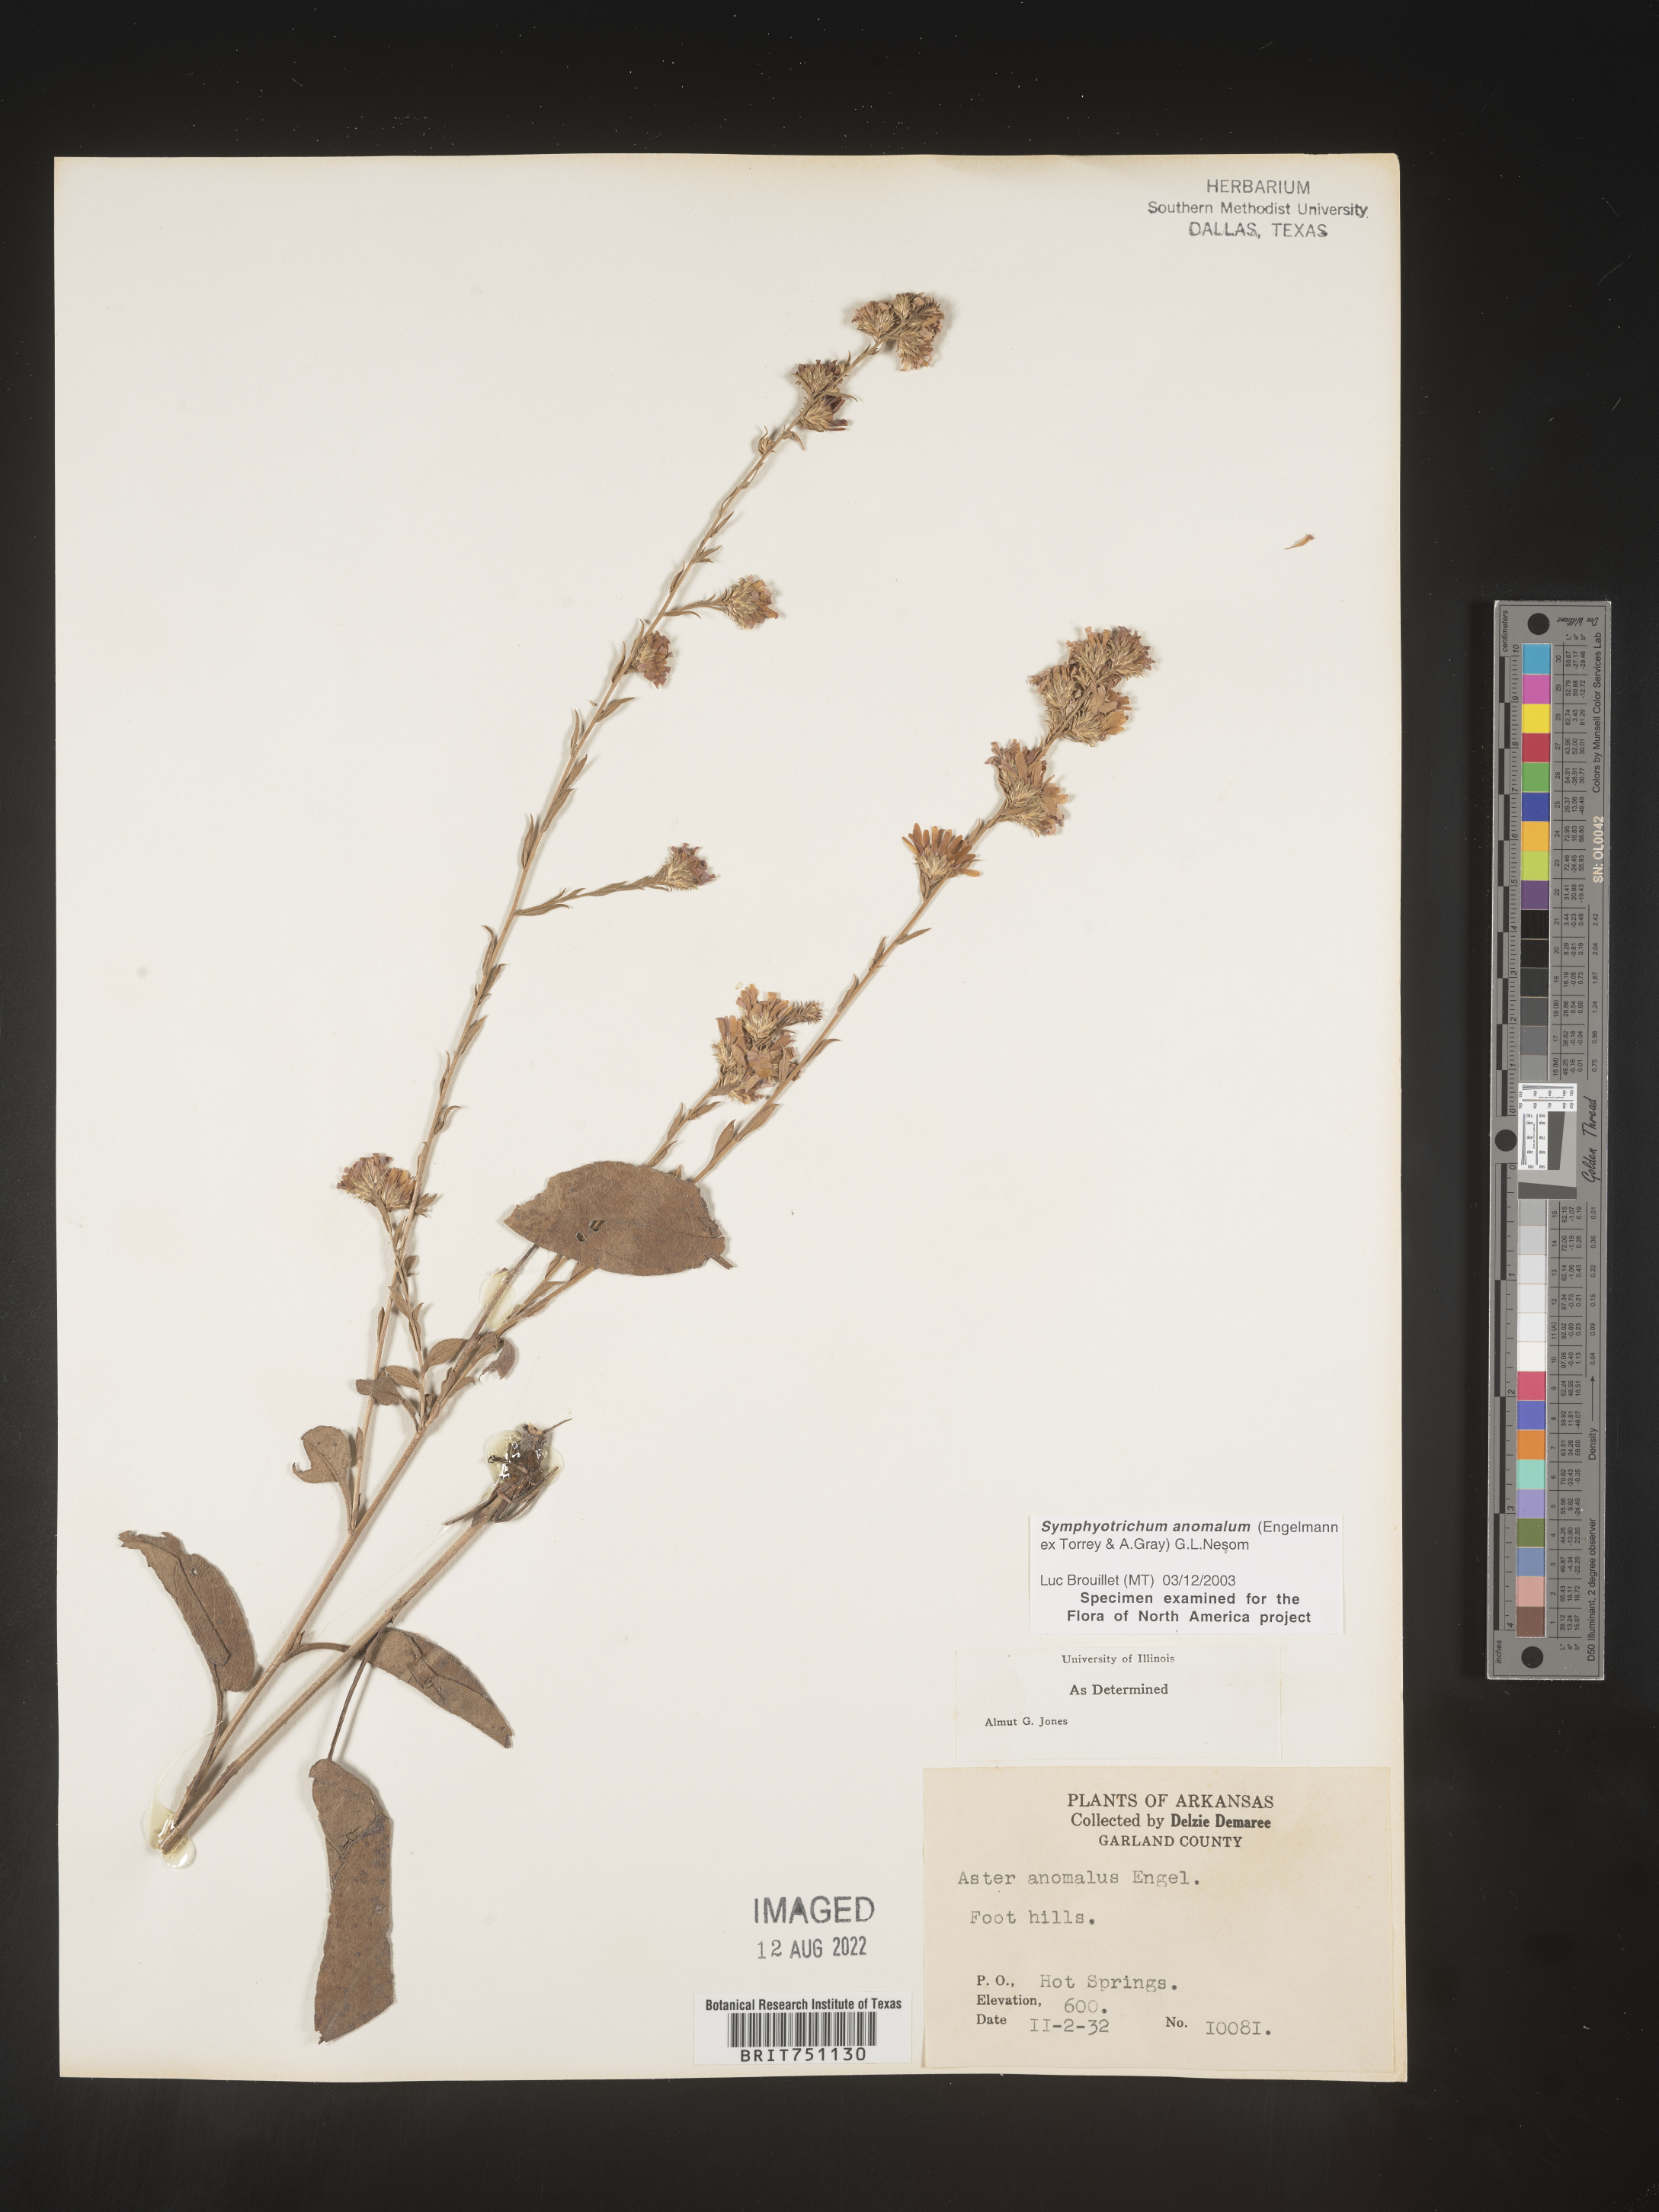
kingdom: Plantae
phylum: Tracheophyta
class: Magnoliopsida
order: Asterales
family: Asteraceae
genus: Symphyotrichum
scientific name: Symphyotrichum anomalum
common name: Many-ray aster
